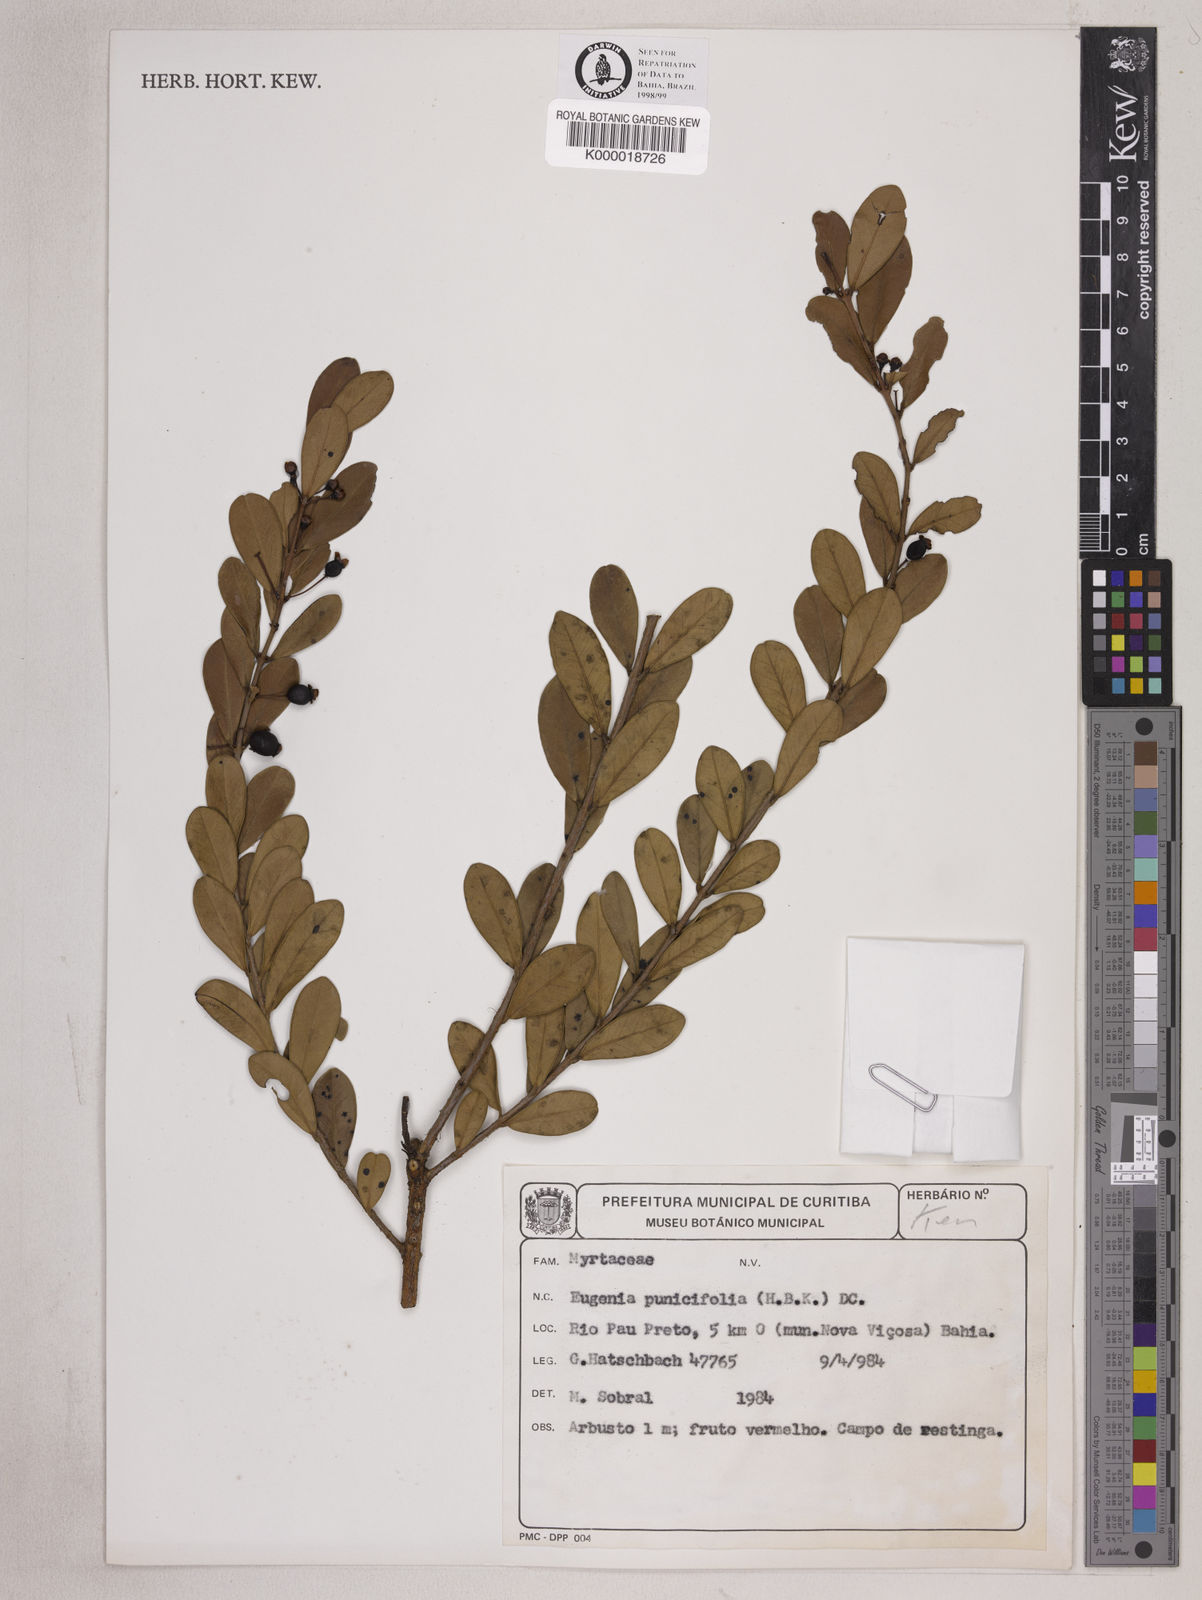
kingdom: Plantae
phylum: Tracheophyta
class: Magnoliopsida
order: Myrtales
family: Myrtaceae
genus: Eugenia
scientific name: Eugenia punicifolia
